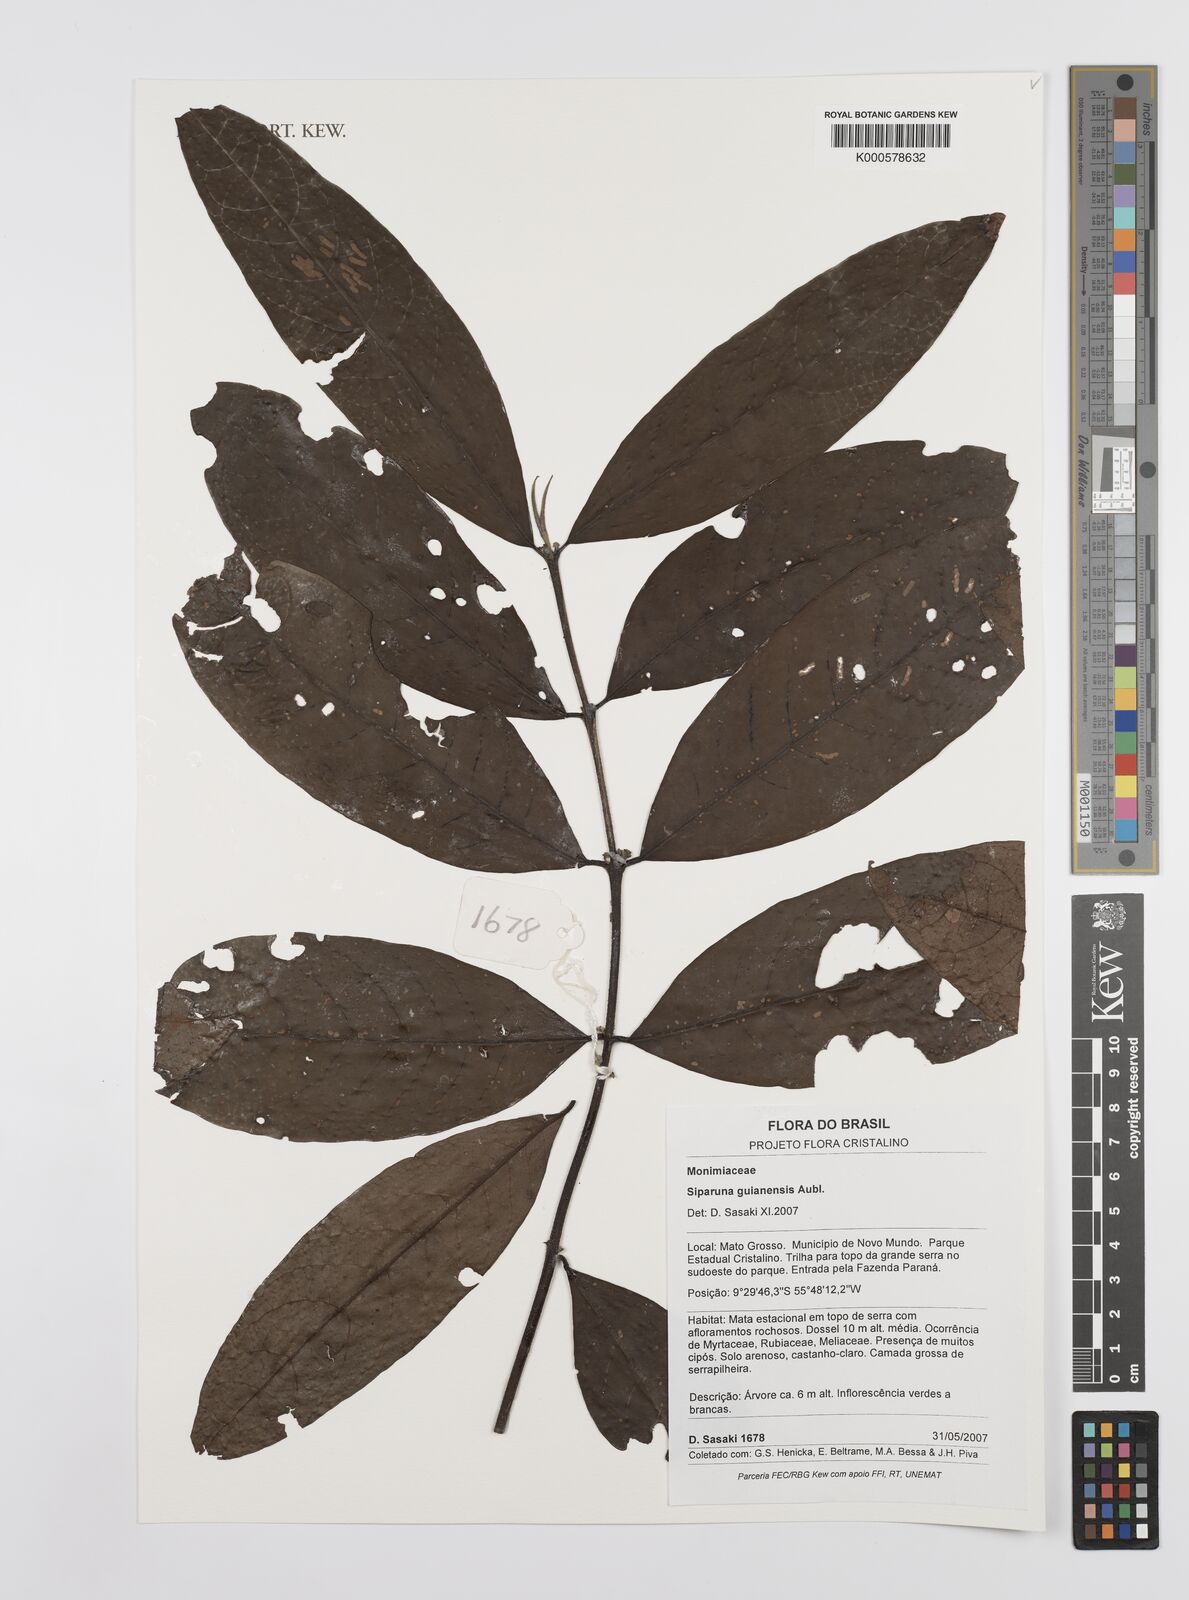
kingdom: Plantae
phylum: Tracheophyta
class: Magnoliopsida
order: Laurales
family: Siparunaceae
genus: Siparuna
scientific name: Siparuna guianensis
